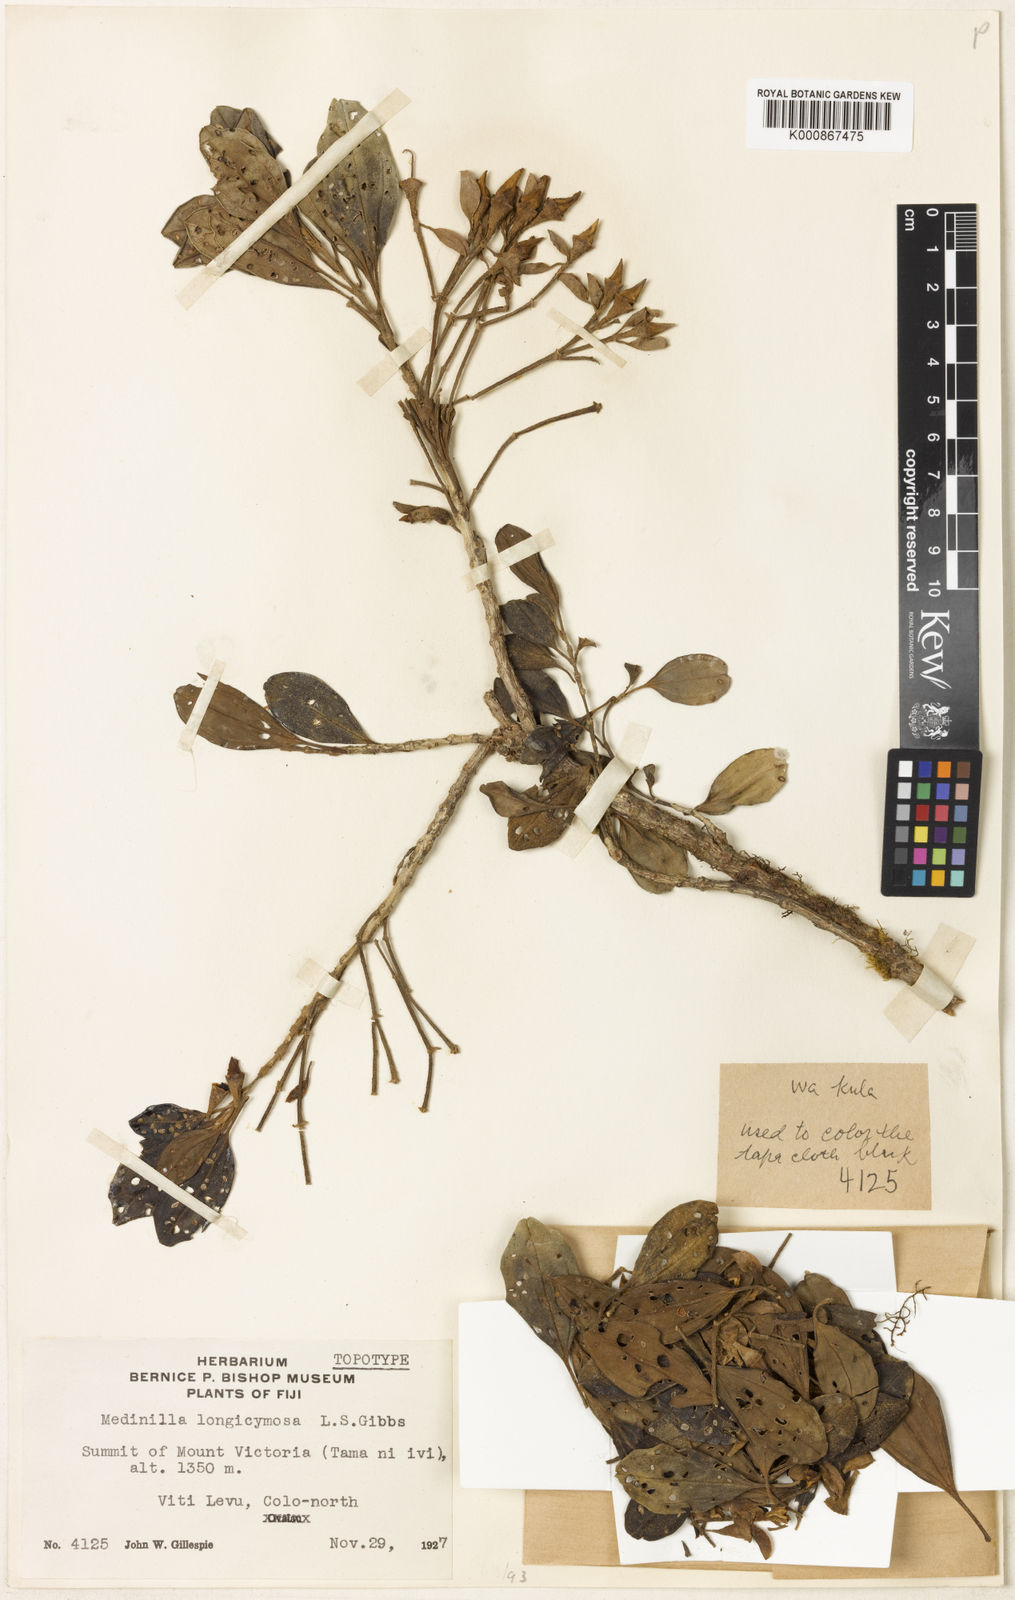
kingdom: Plantae
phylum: Tracheophyta
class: Magnoliopsida
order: Myrtales
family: Melastomataceae
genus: Medinilla
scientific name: Medinilla longicymosa
